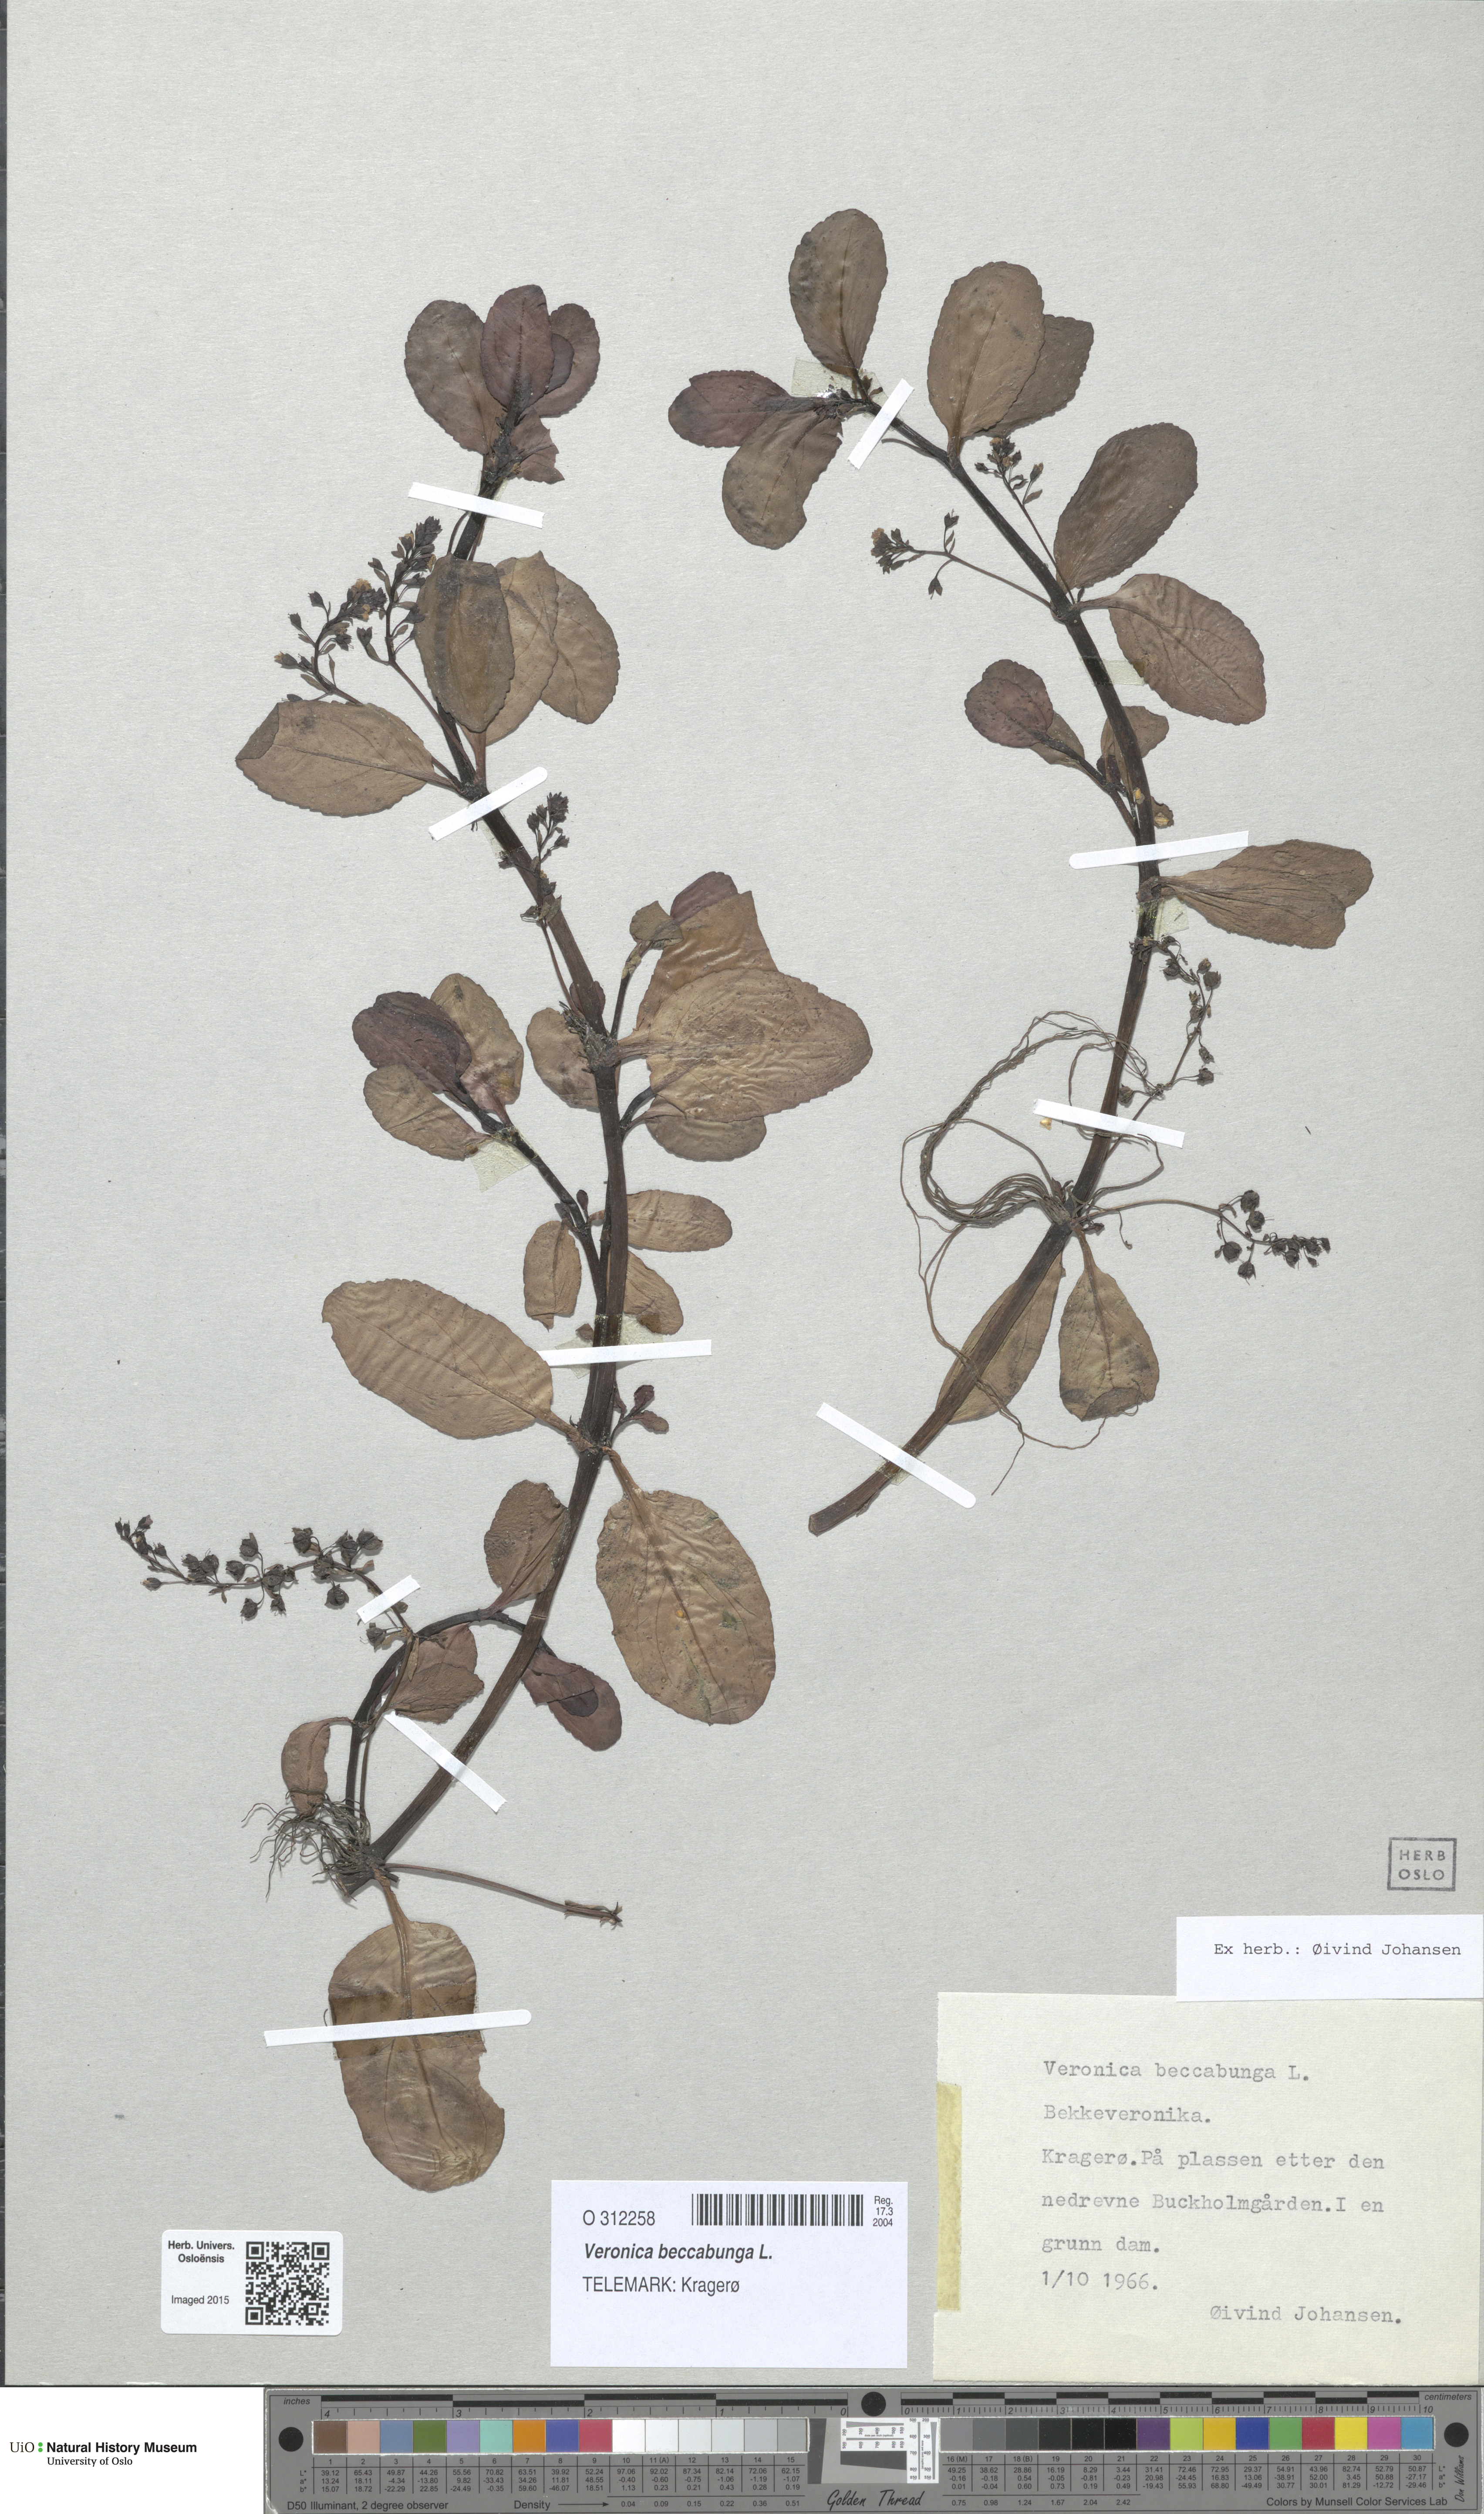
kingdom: Plantae
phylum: Tracheophyta
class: Magnoliopsida
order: Lamiales
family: Plantaginaceae
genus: Veronica
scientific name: Veronica beccabunga
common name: Brooklime
